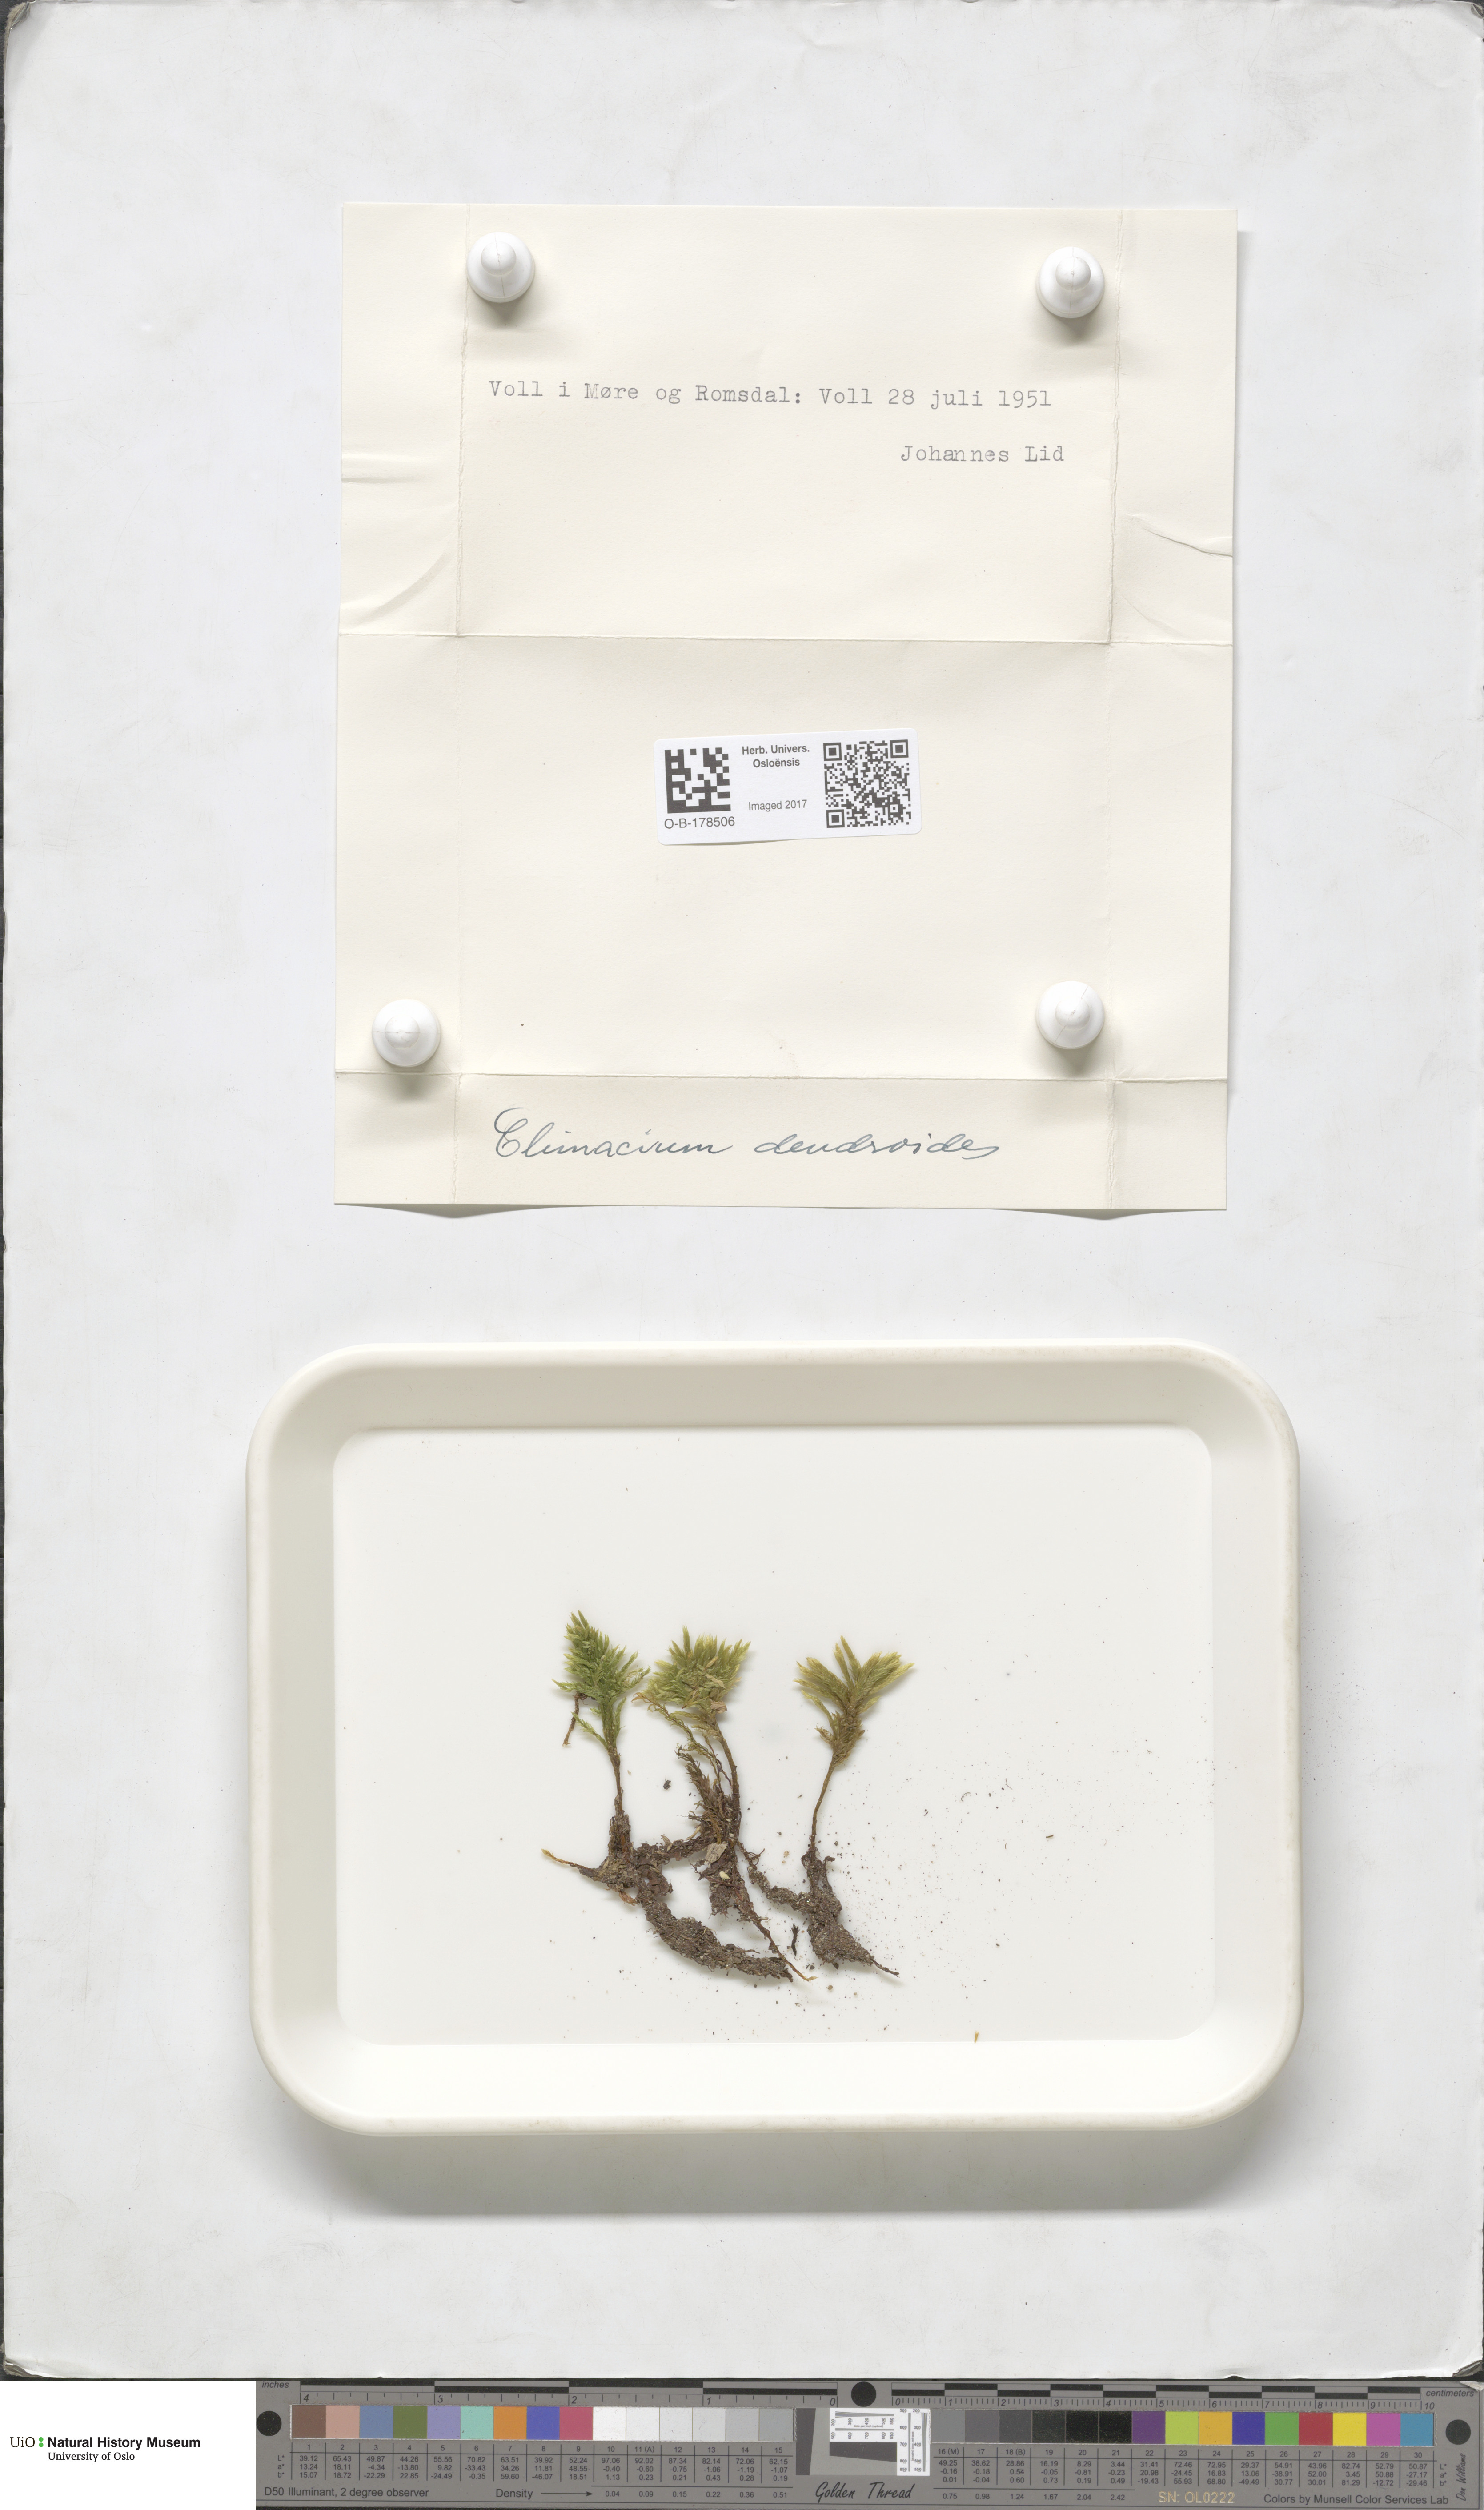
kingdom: Plantae
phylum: Bryophyta
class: Bryopsida
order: Hypnales
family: Climaciaceae
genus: Climacium
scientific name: Climacium dendroides
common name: Northern tree moss
